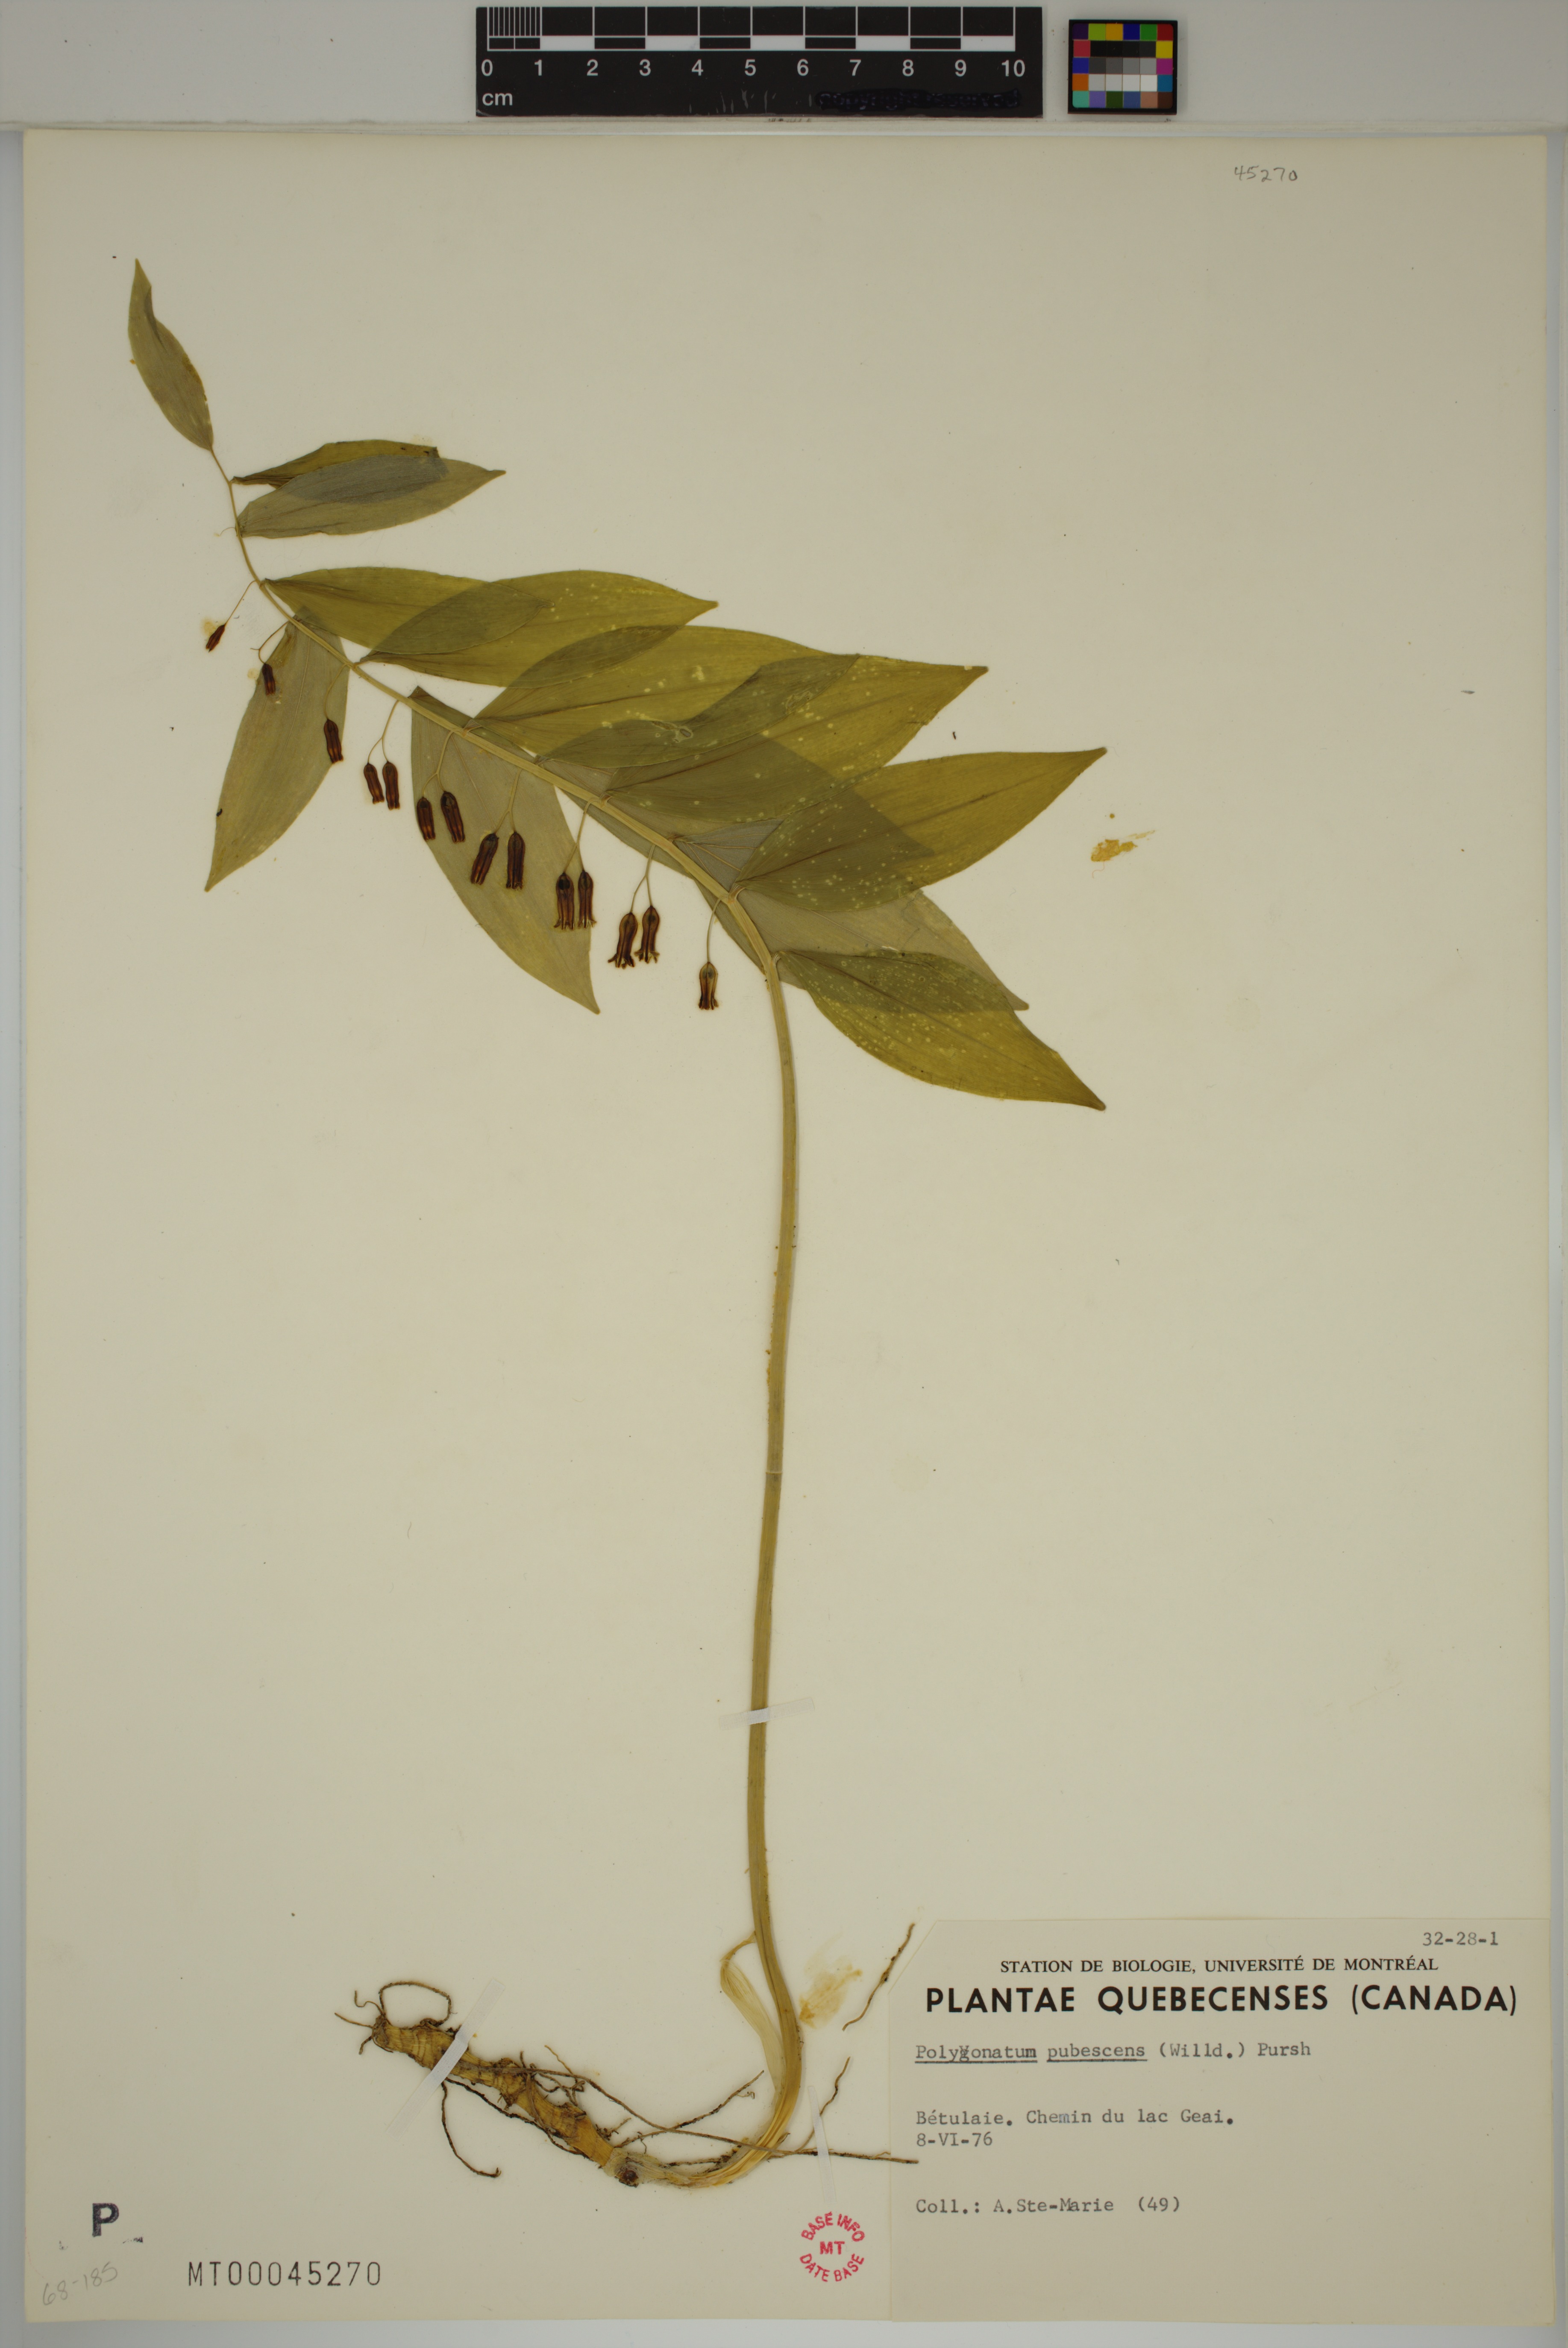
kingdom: Plantae
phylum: Tracheophyta
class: Liliopsida
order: Asparagales
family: Asparagaceae
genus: Polygonatum
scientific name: Polygonatum pubescens
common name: Downy solomon's seal
